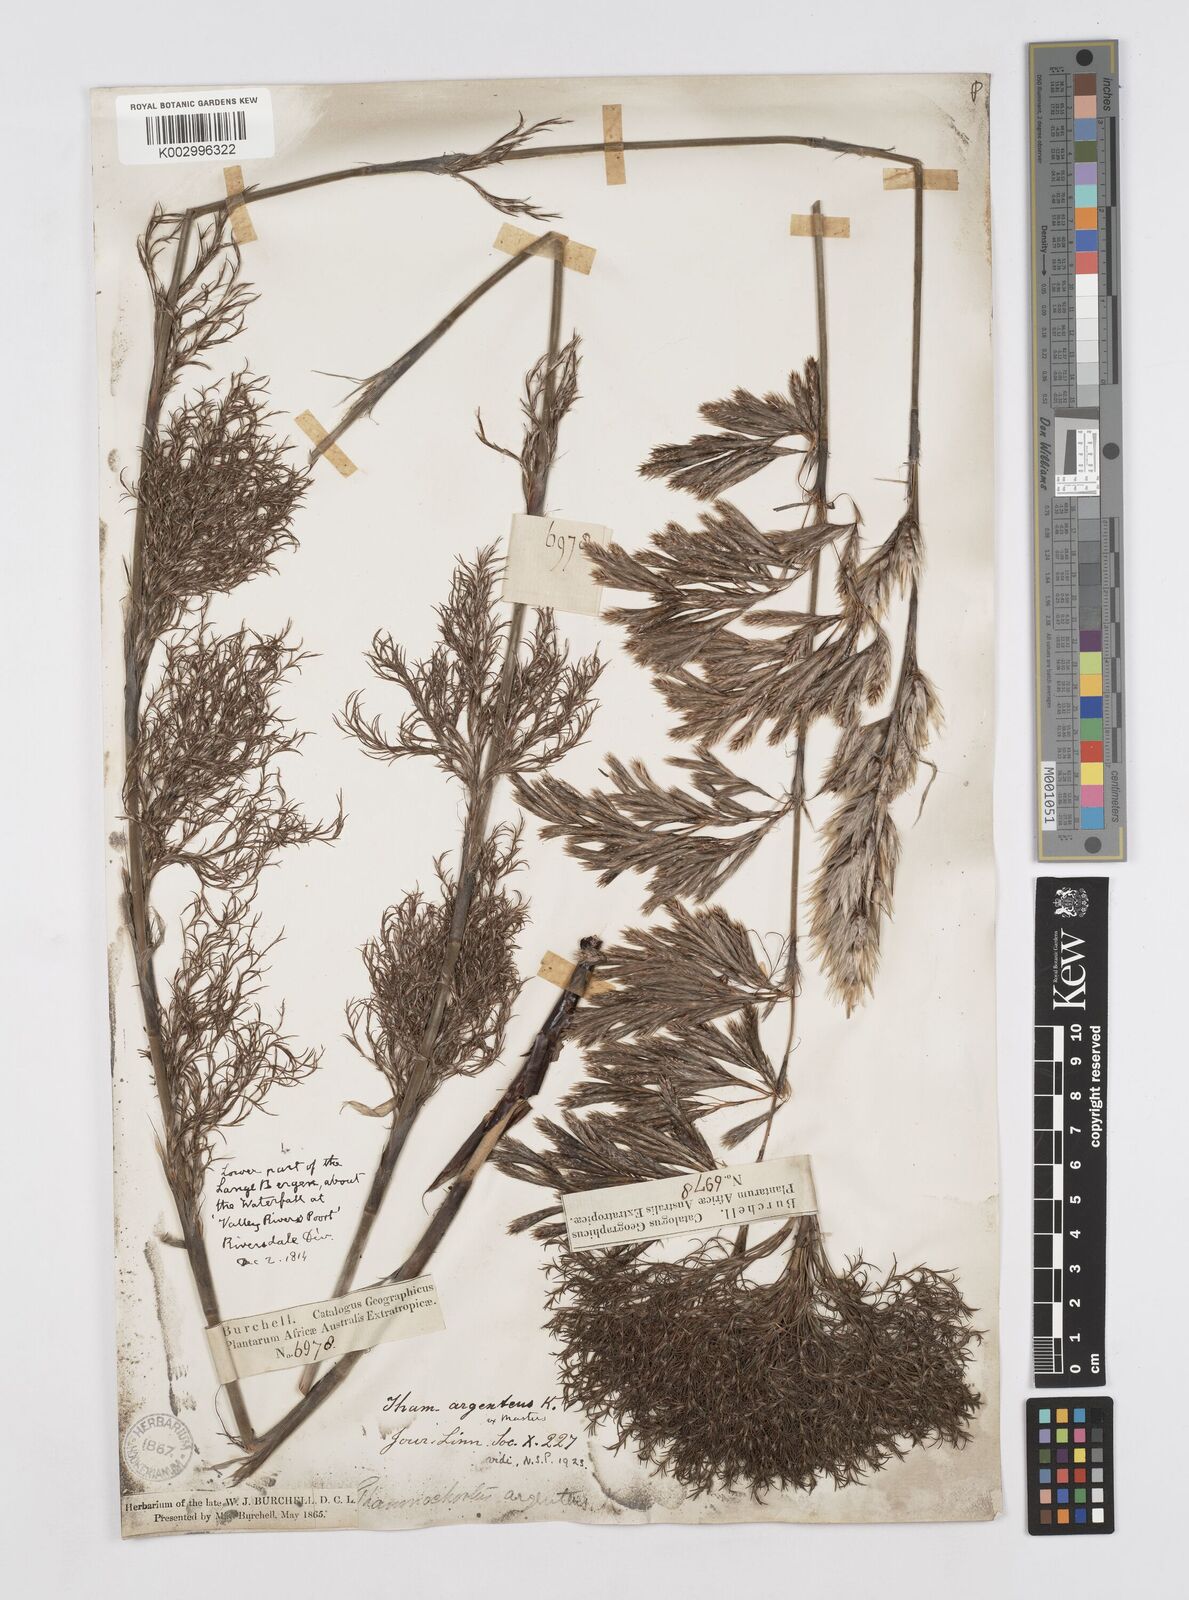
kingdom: Plantae
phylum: Tracheophyta
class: Liliopsida
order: Poales
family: Restionaceae
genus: Hypodiscus
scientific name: Hypodiscus argenteus
